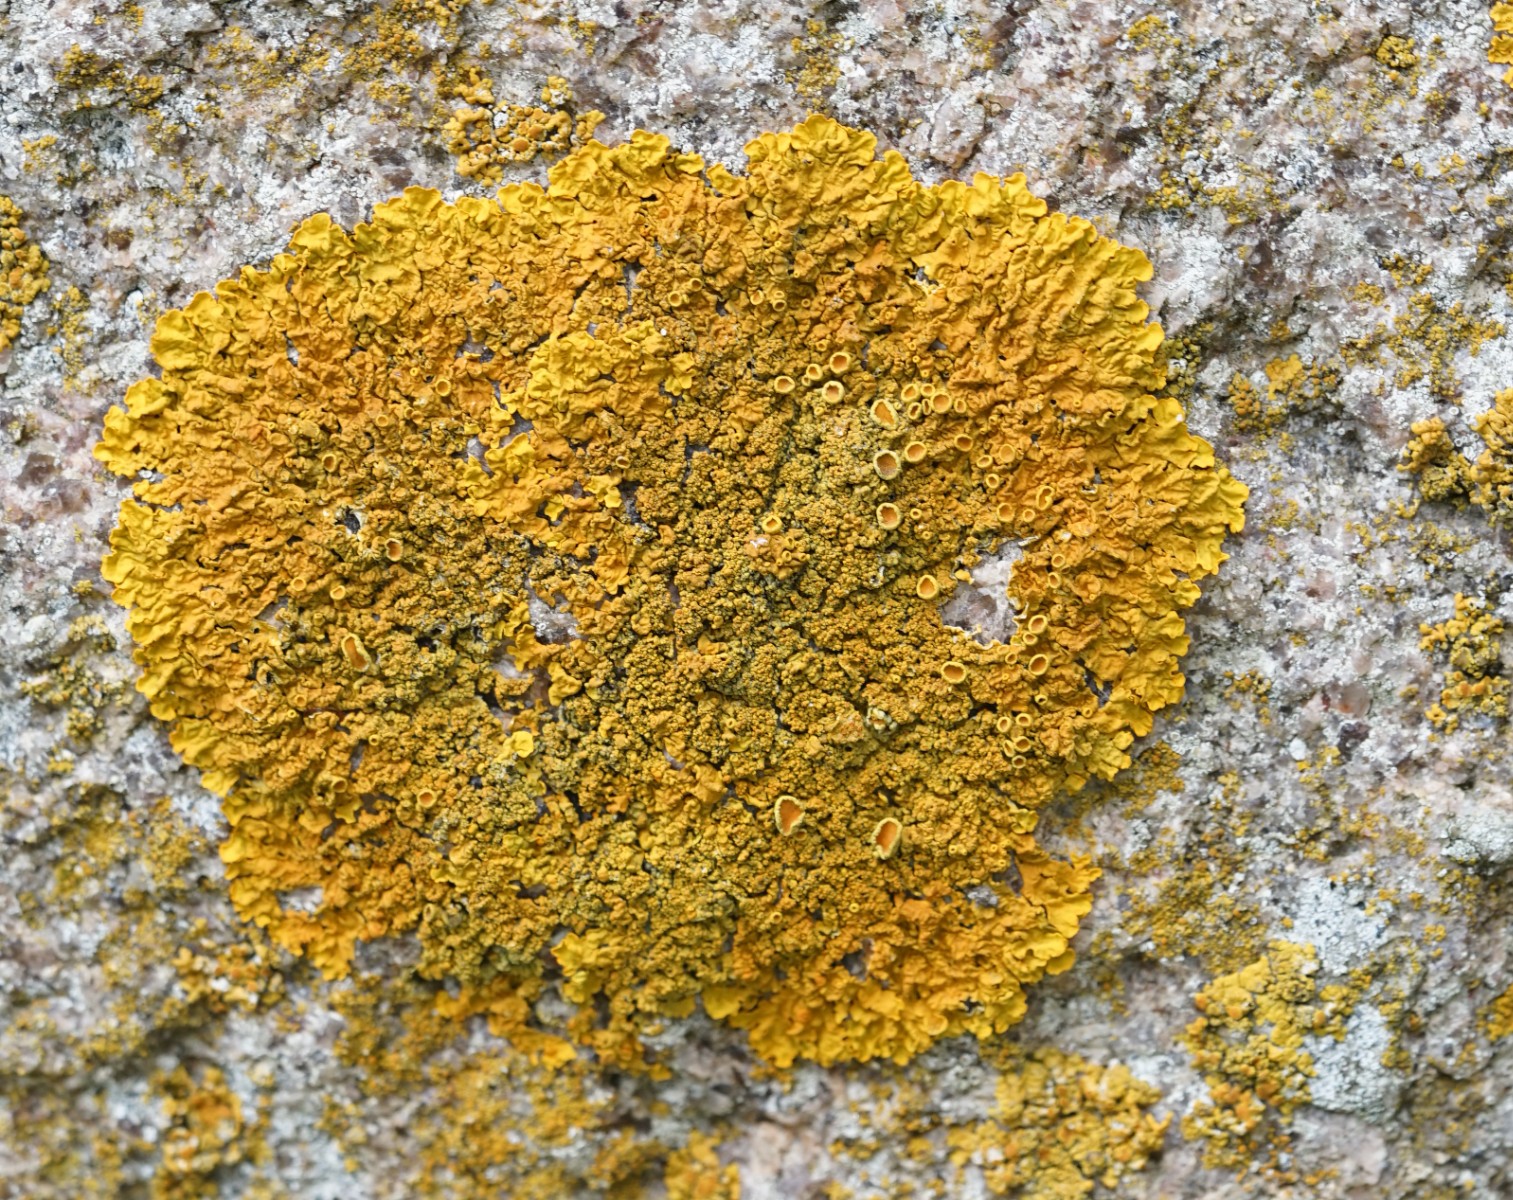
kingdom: Fungi
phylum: Ascomycota
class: Lecanoromycetes
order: Teloschistales
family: Teloschistaceae
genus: Xanthoria
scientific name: Xanthoria calcicola
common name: vortet væggelav
